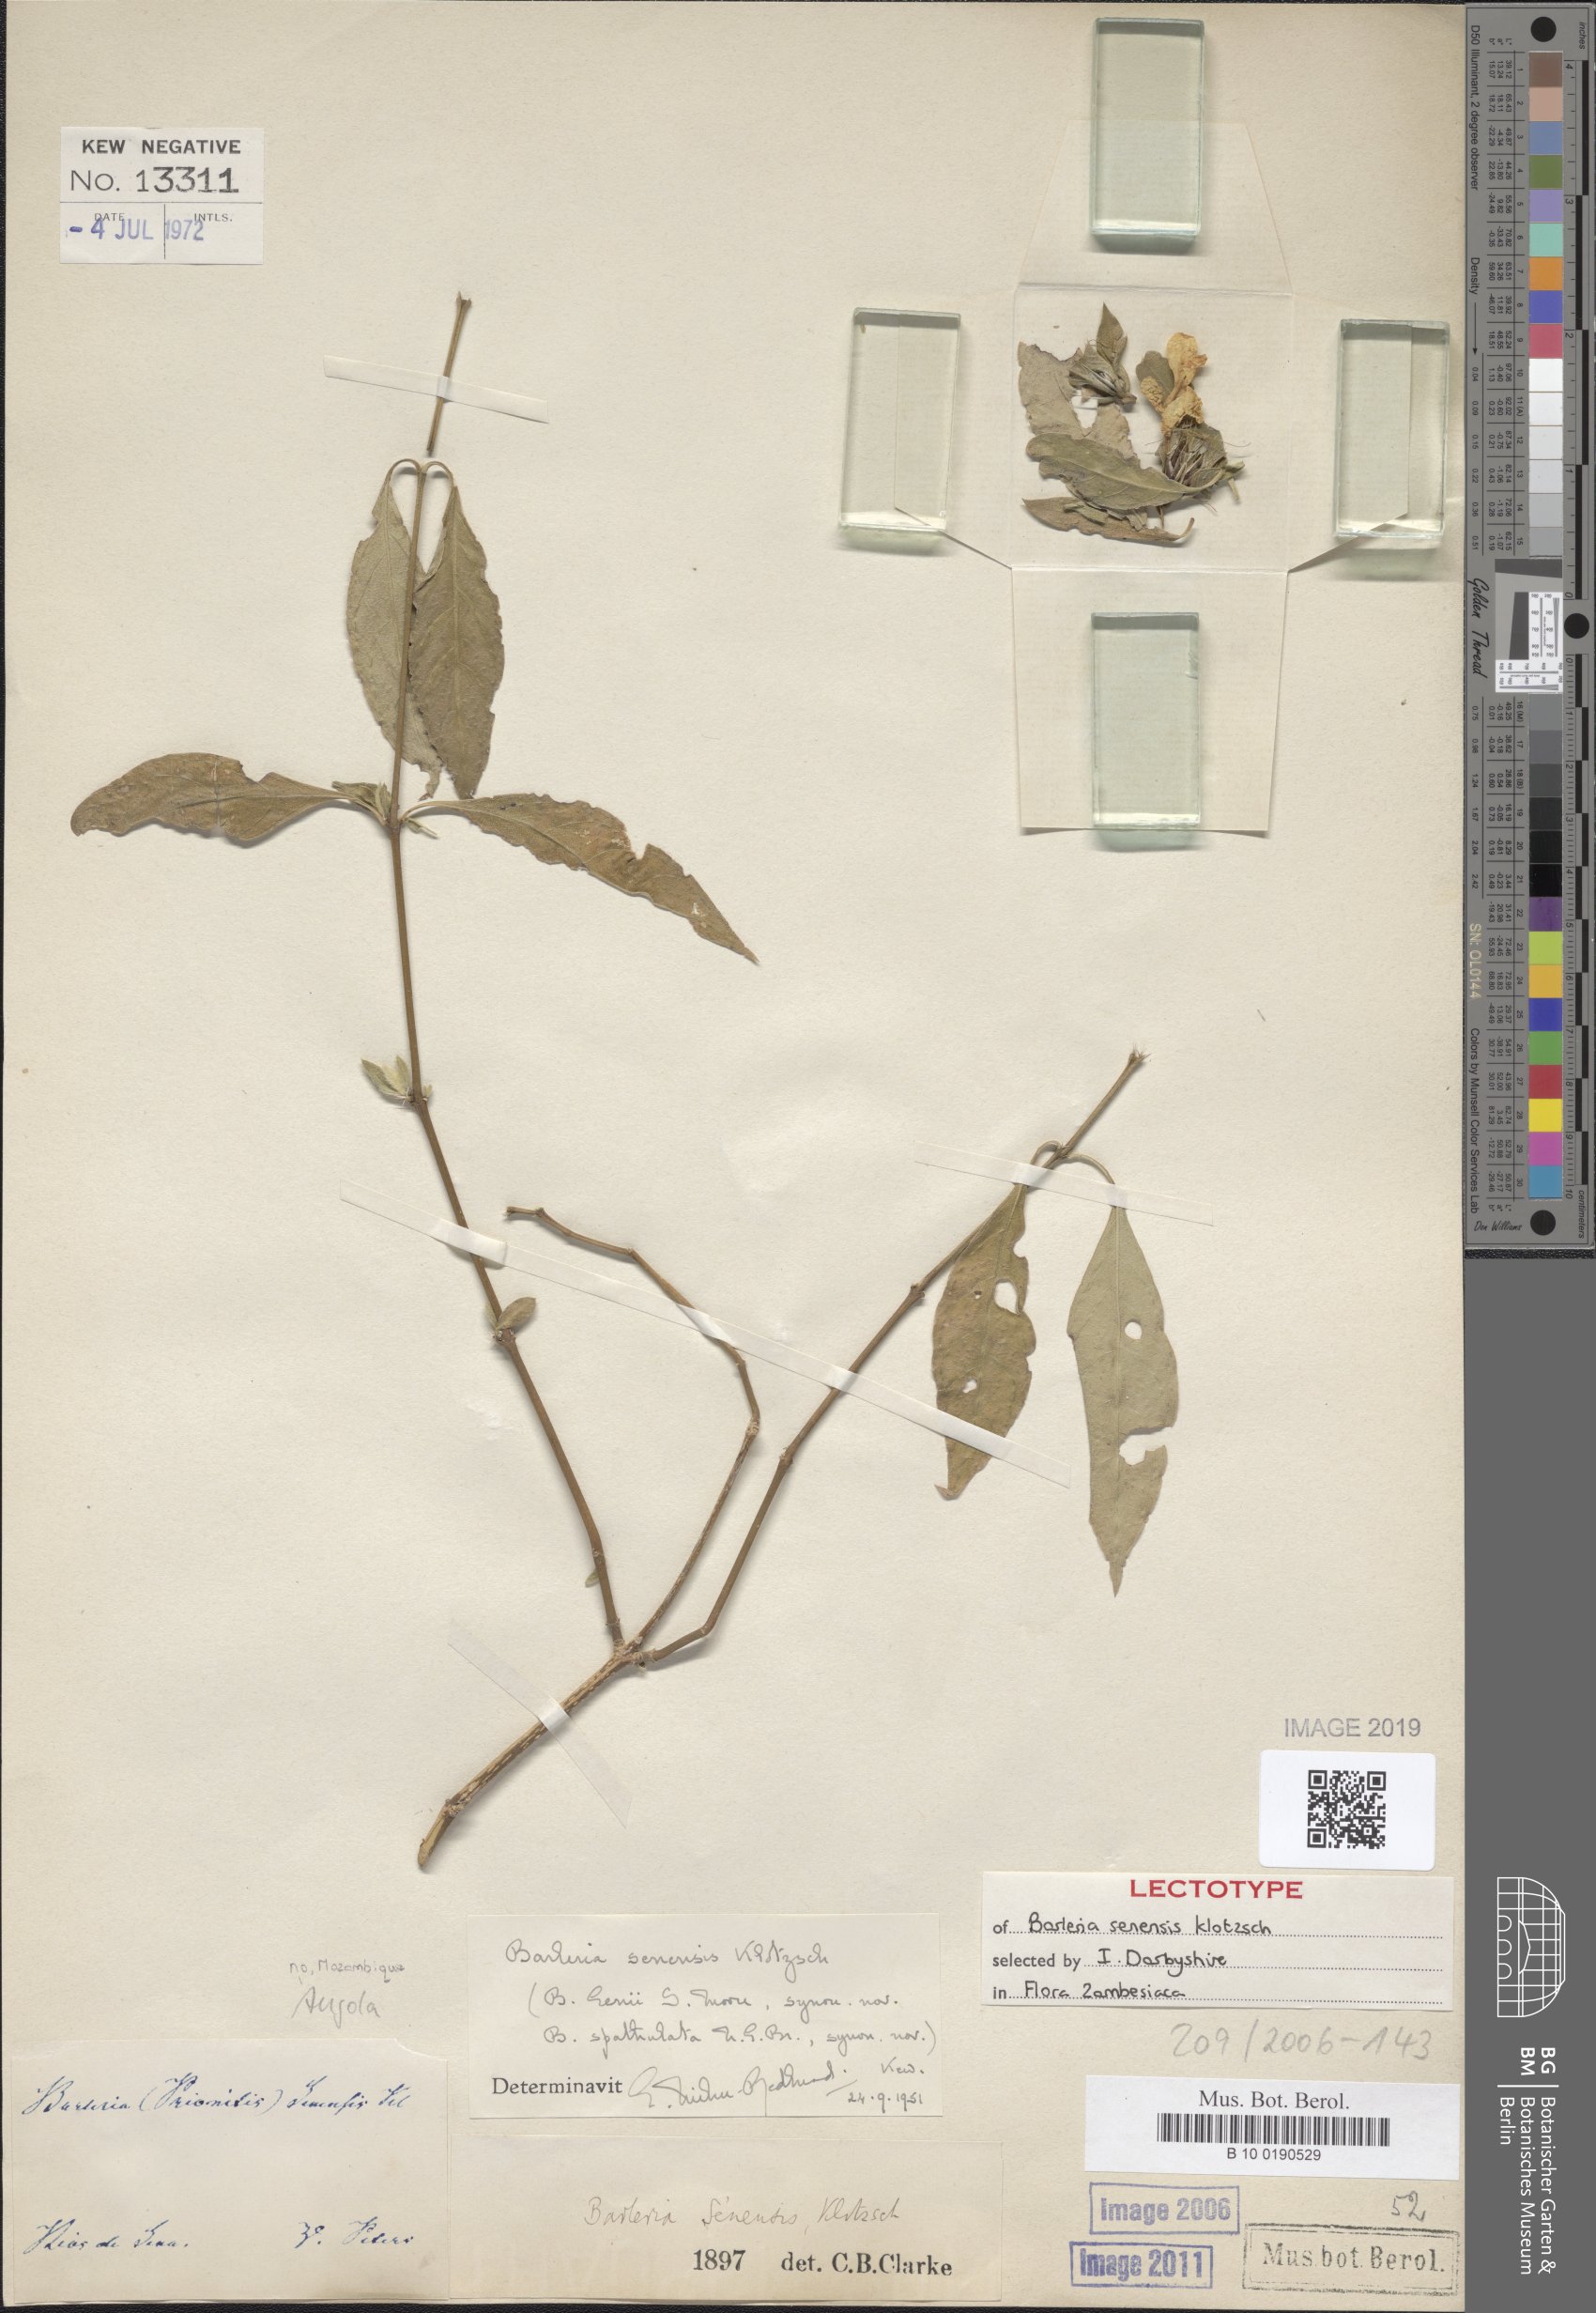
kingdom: Plantae
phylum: Tracheophyta
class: Magnoliopsida
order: Lamiales
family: Acanthaceae
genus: Barleria
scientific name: Barleria senensis
